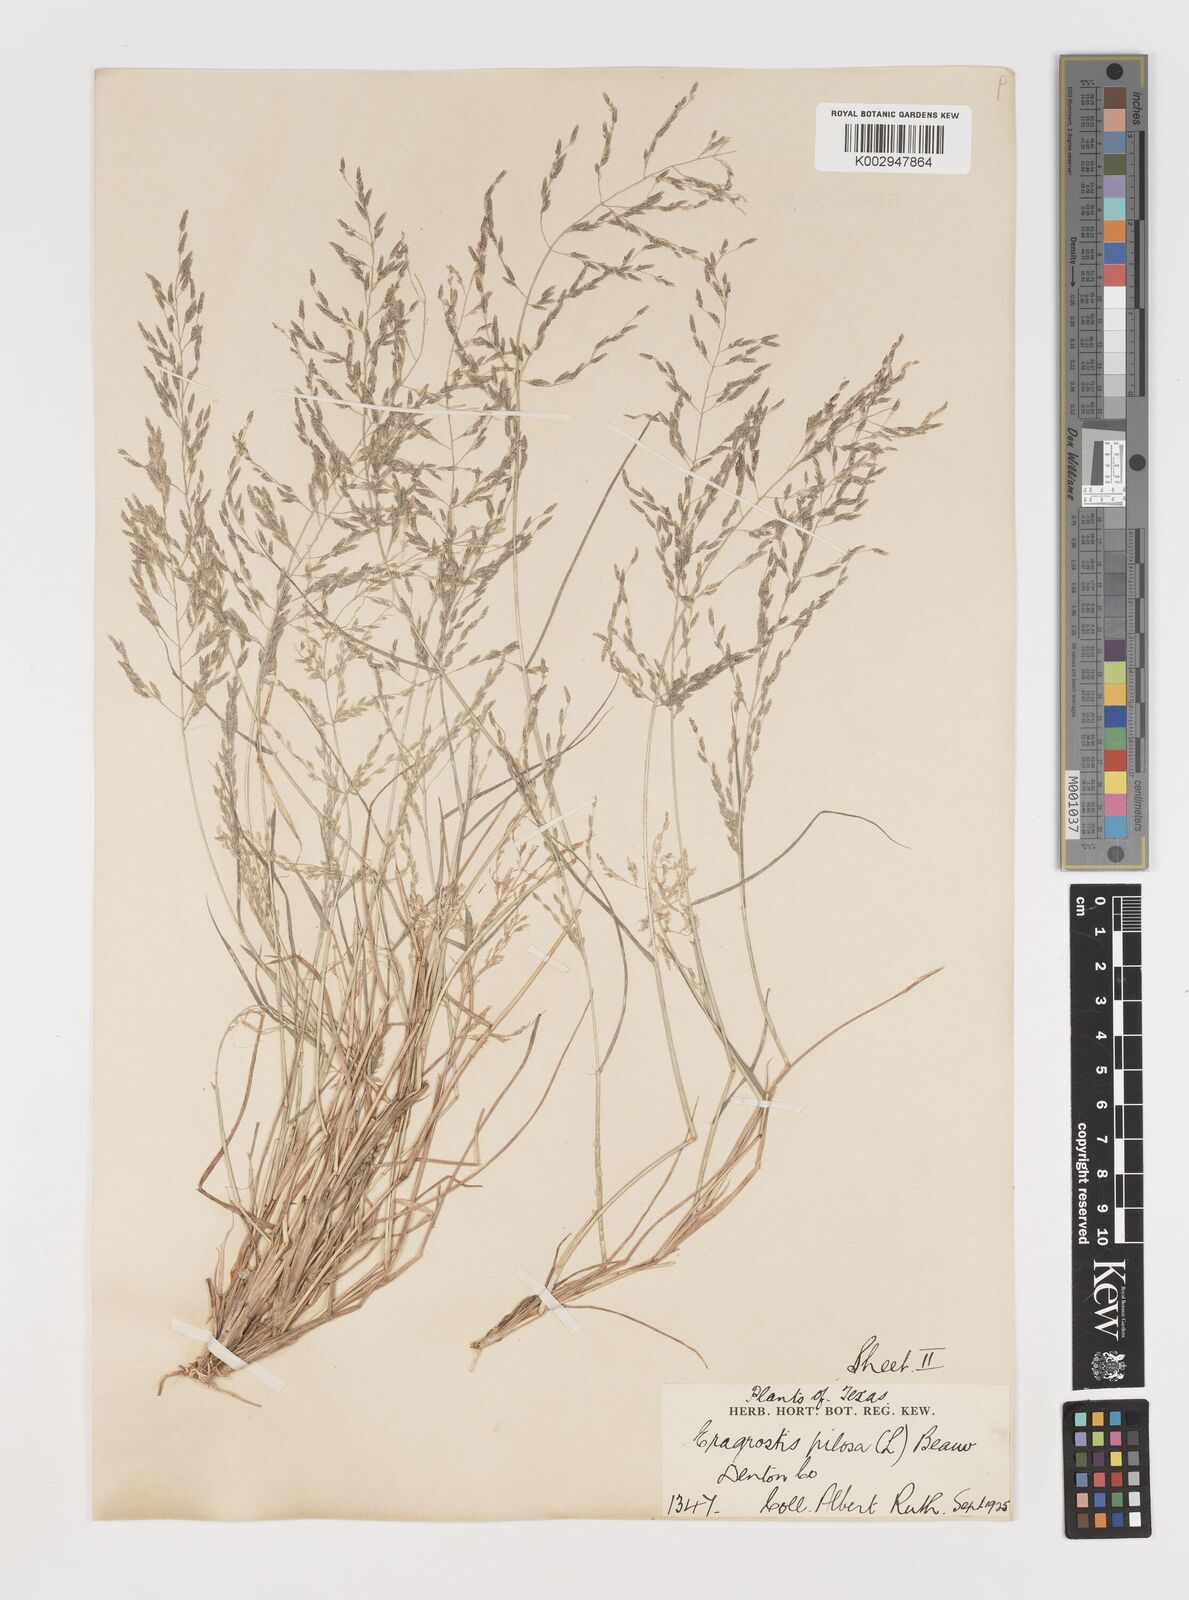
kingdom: Plantae
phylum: Tracheophyta
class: Liliopsida
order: Poales
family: Poaceae
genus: Eragrostis
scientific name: Eragrostis pectinacea
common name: Tufted lovegrass
